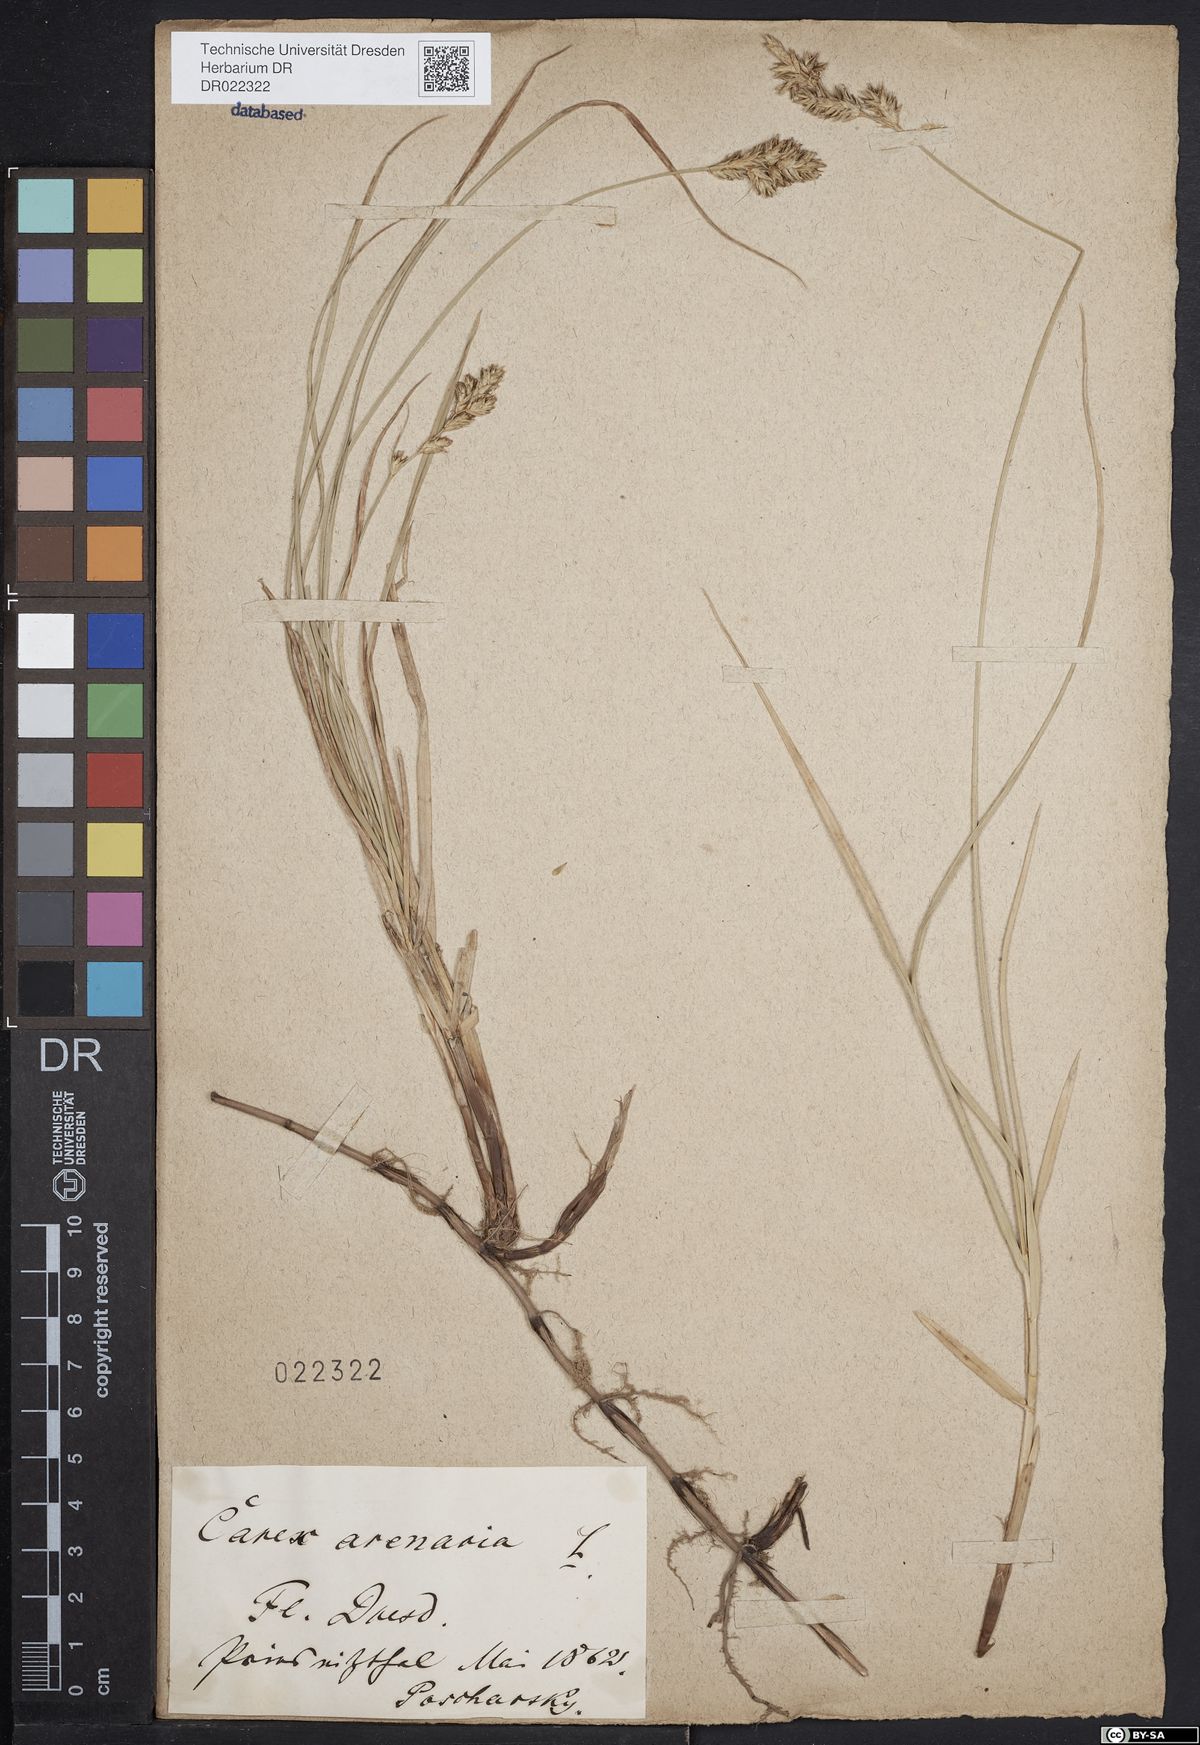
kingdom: Plantae
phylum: Tracheophyta
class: Liliopsida
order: Poales
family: Cyperaceae
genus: Carex
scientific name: Carex arenaria
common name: Sand sedge
